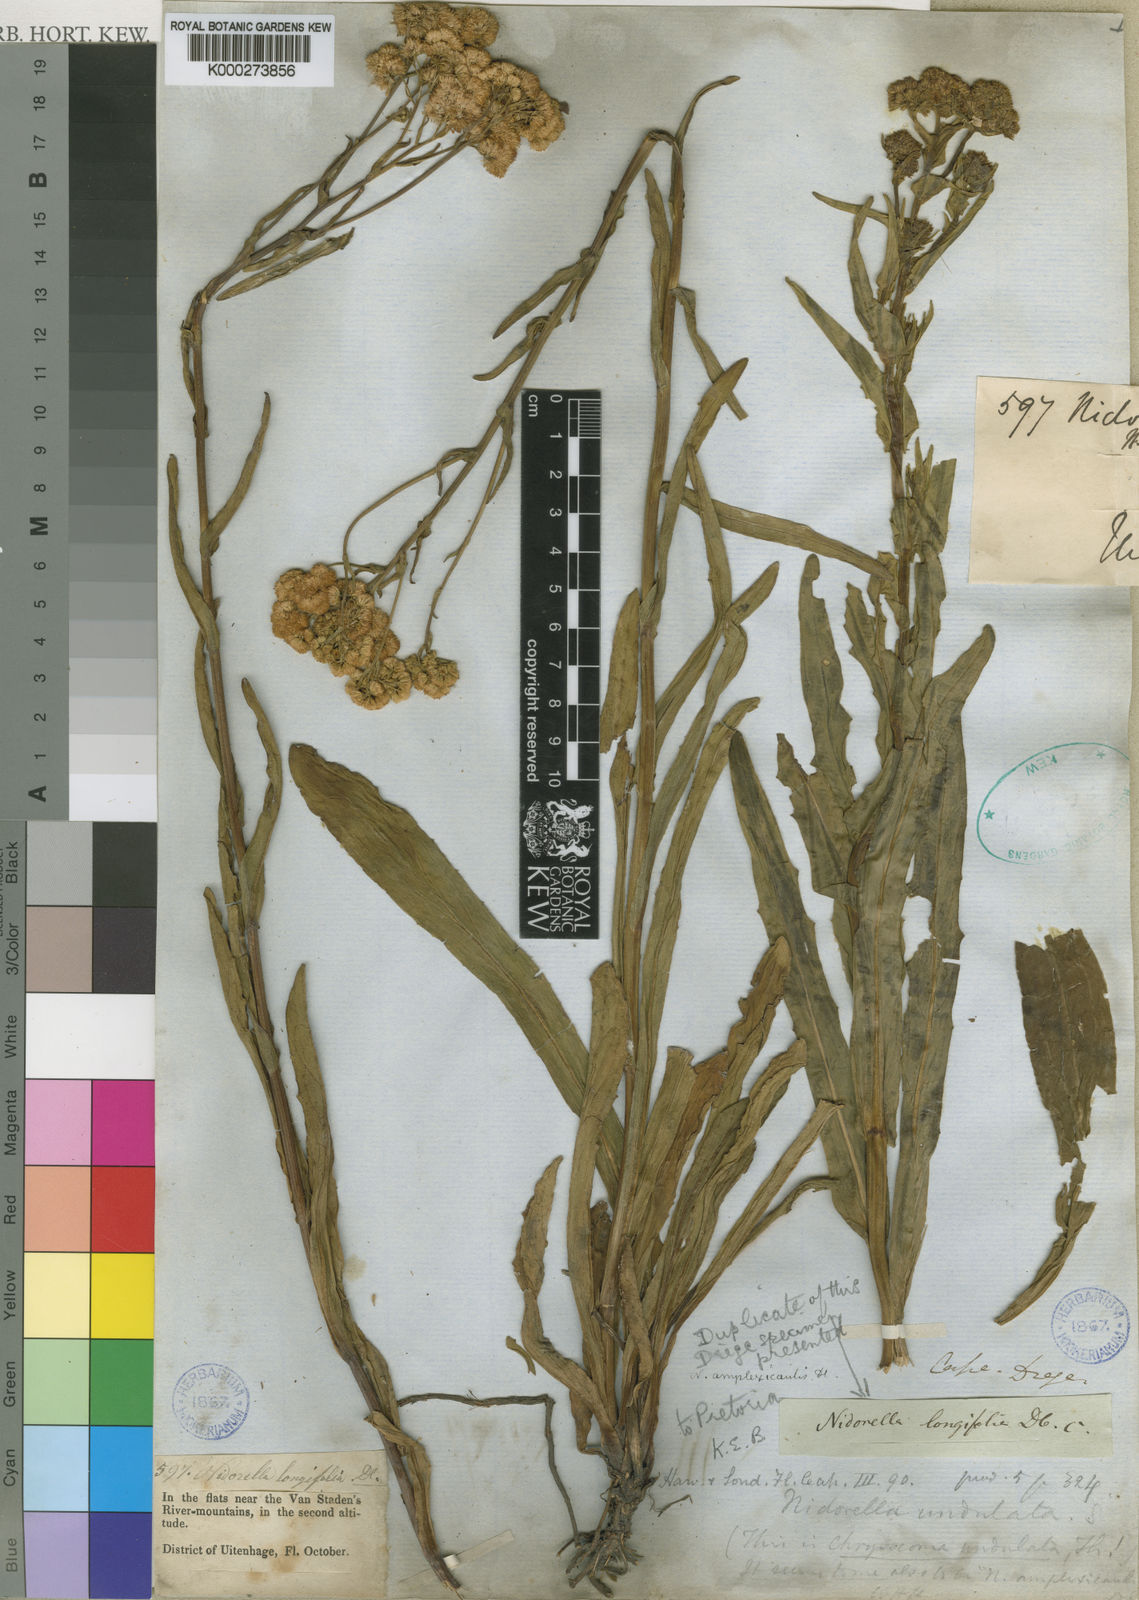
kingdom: Plantae
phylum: Tracheophyta
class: Magnoliopsida
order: Asterales
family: Asteraceae
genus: Nidorella
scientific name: Nidorella
